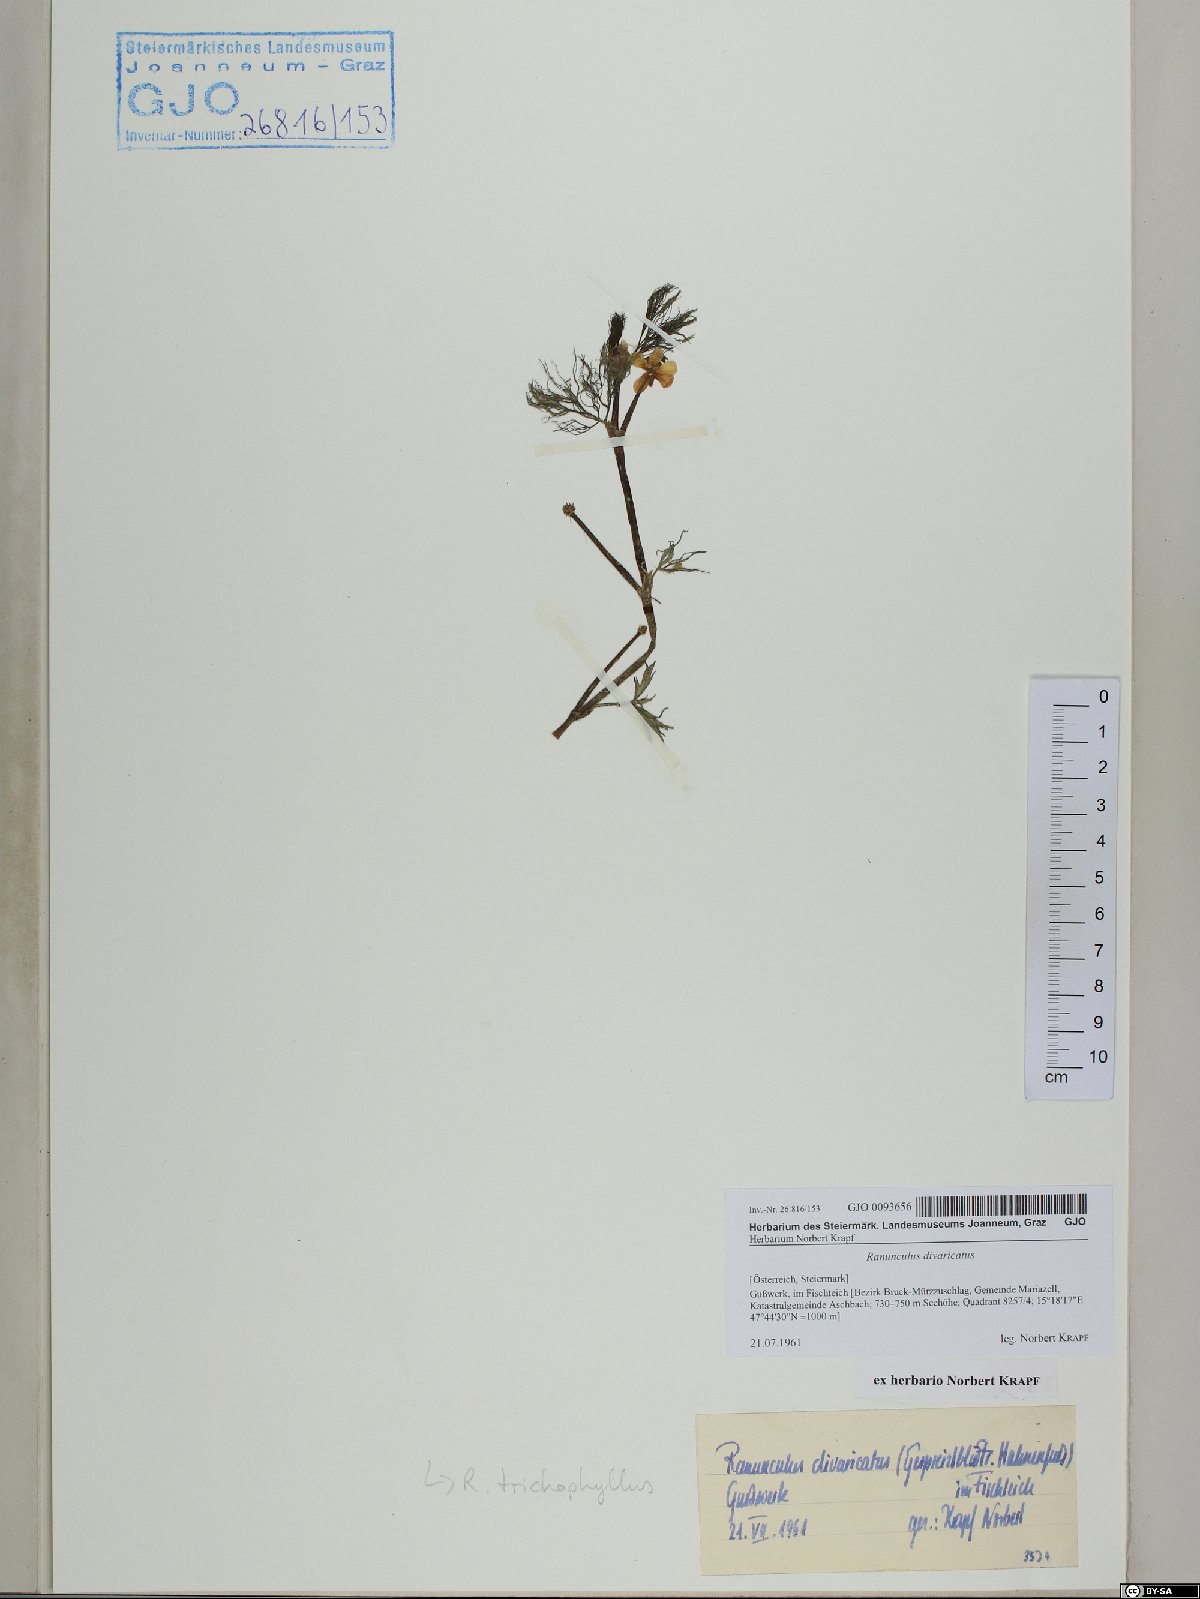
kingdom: Plantae
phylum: Tracheophyta
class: Magnoliopsida
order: Ranunculales
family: Ranunculaceae
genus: Ranunculus
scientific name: Ranunculus trichophyllus
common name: Thread-leaved water-crowfoot
